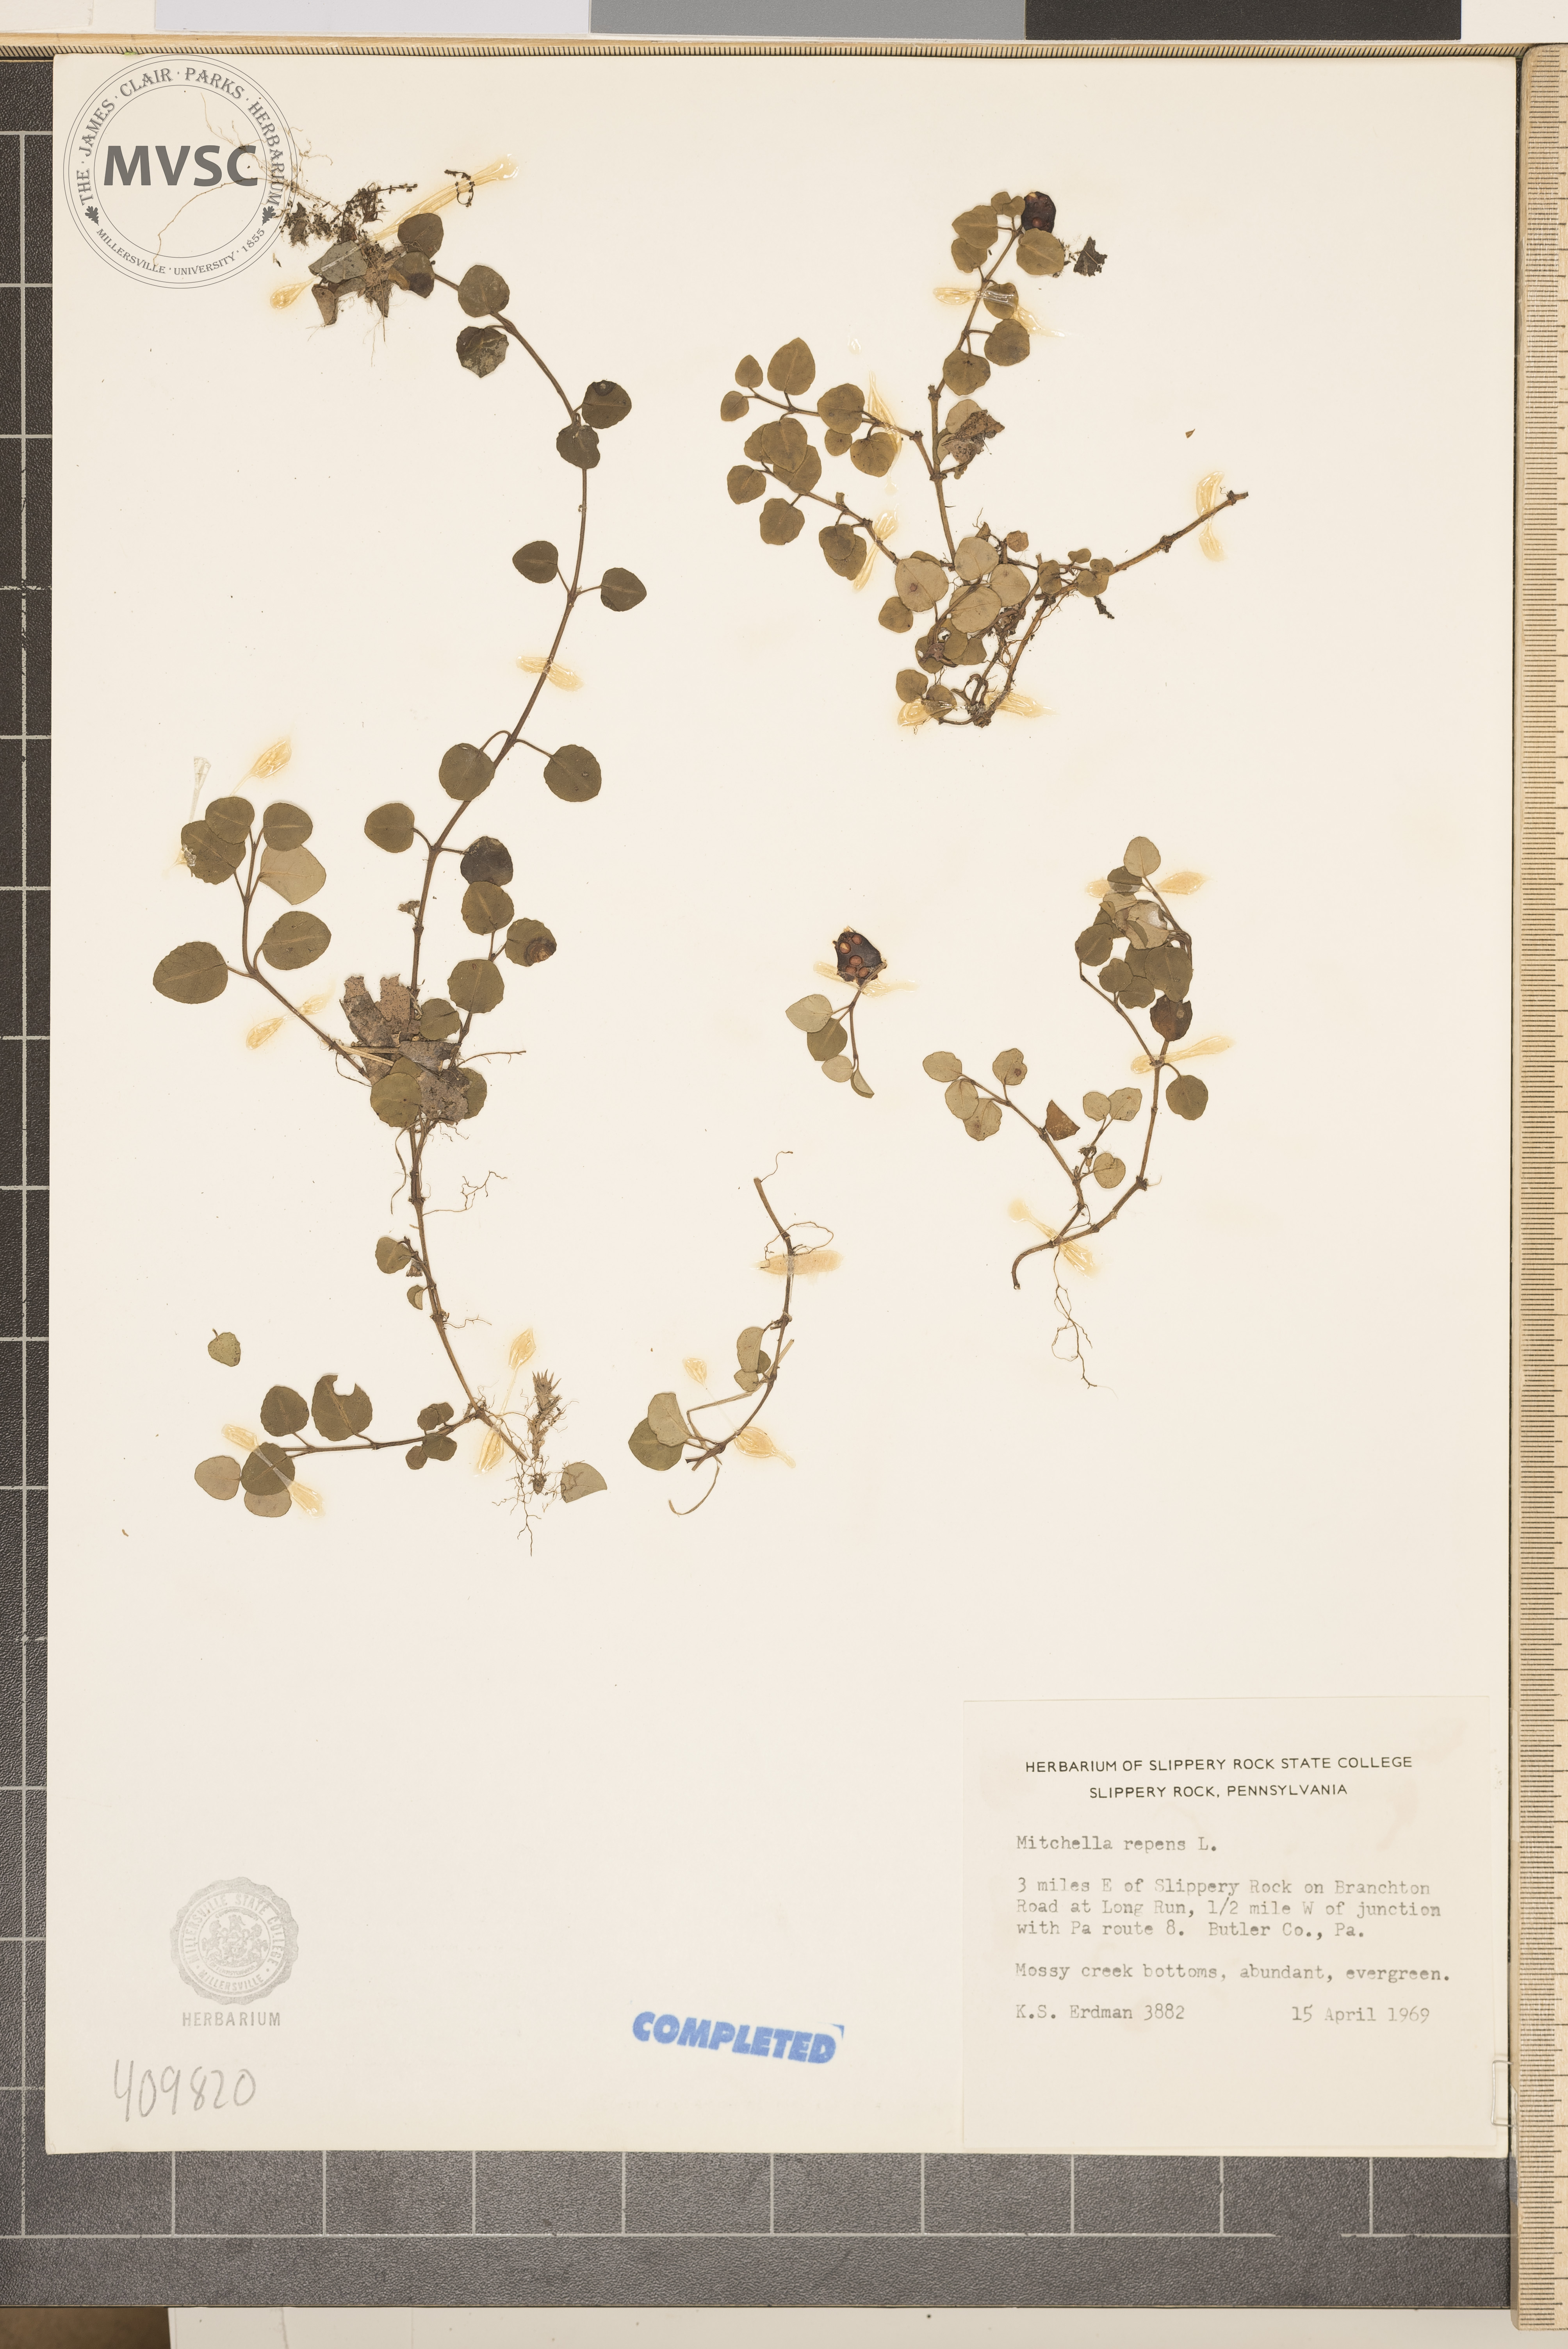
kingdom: Plantae
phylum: Tracheophyta
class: Magnoliopsida
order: Gentianales
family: Rubiaceae
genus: Mitchella
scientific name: Mitchella repens
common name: Partridge-berry
